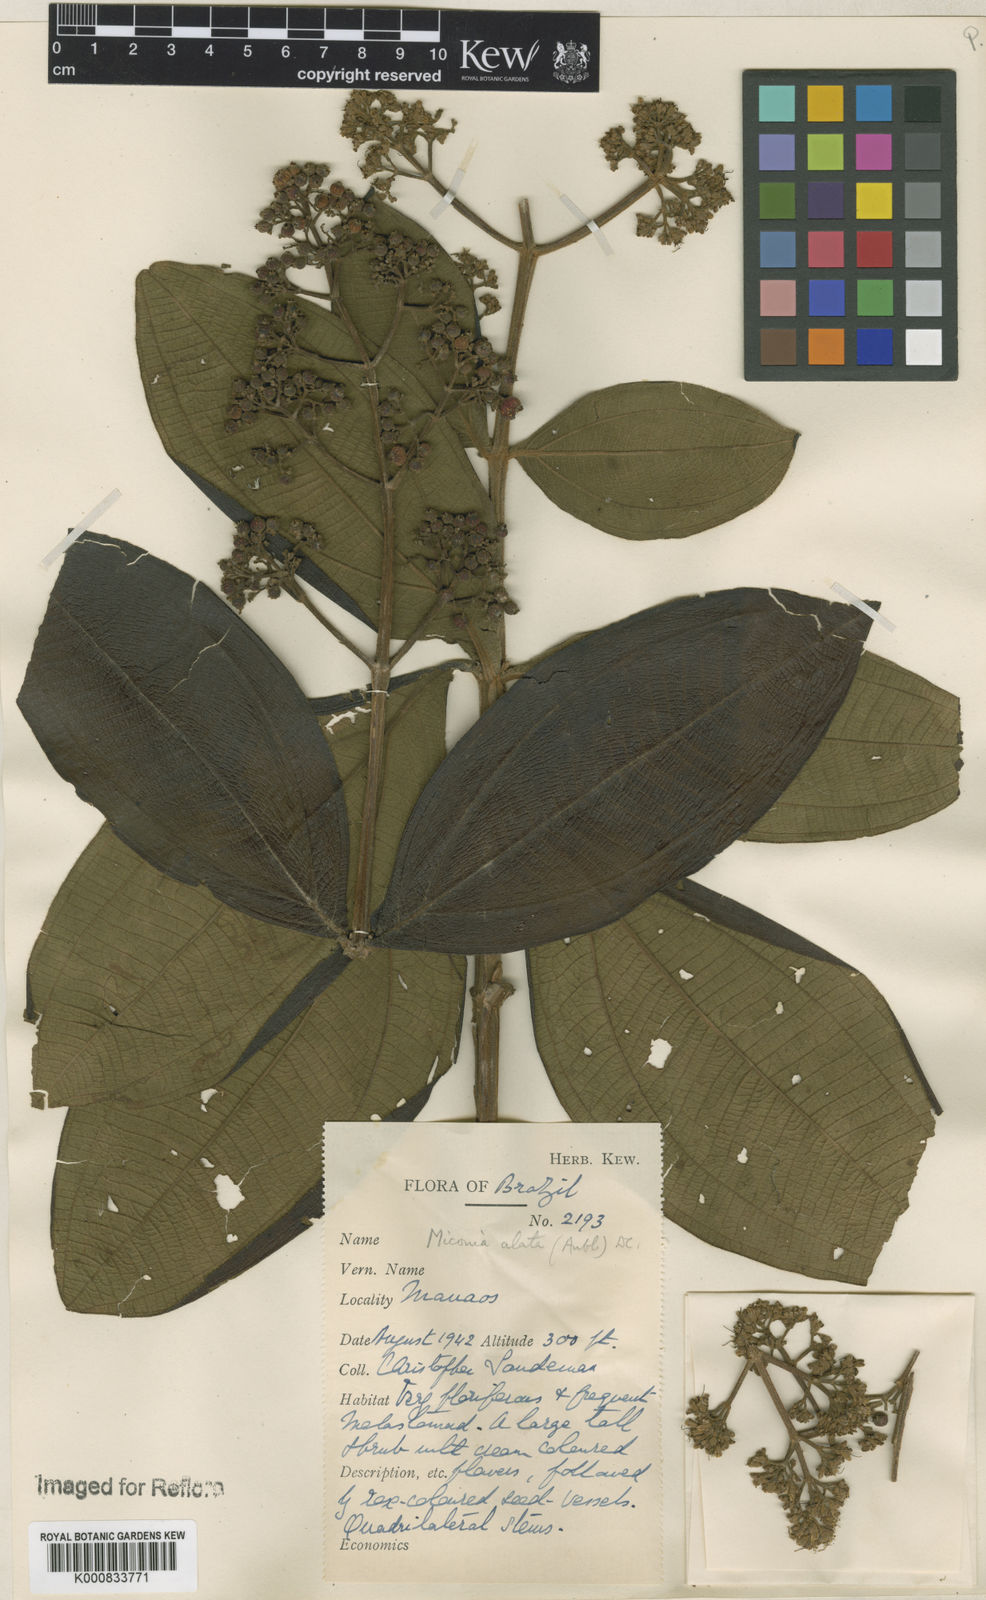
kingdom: Plantae
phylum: Tracheophyta
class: Magnoliopsida
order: Myrtales
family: Melastomataceae
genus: Miconia
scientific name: Miconia alata
